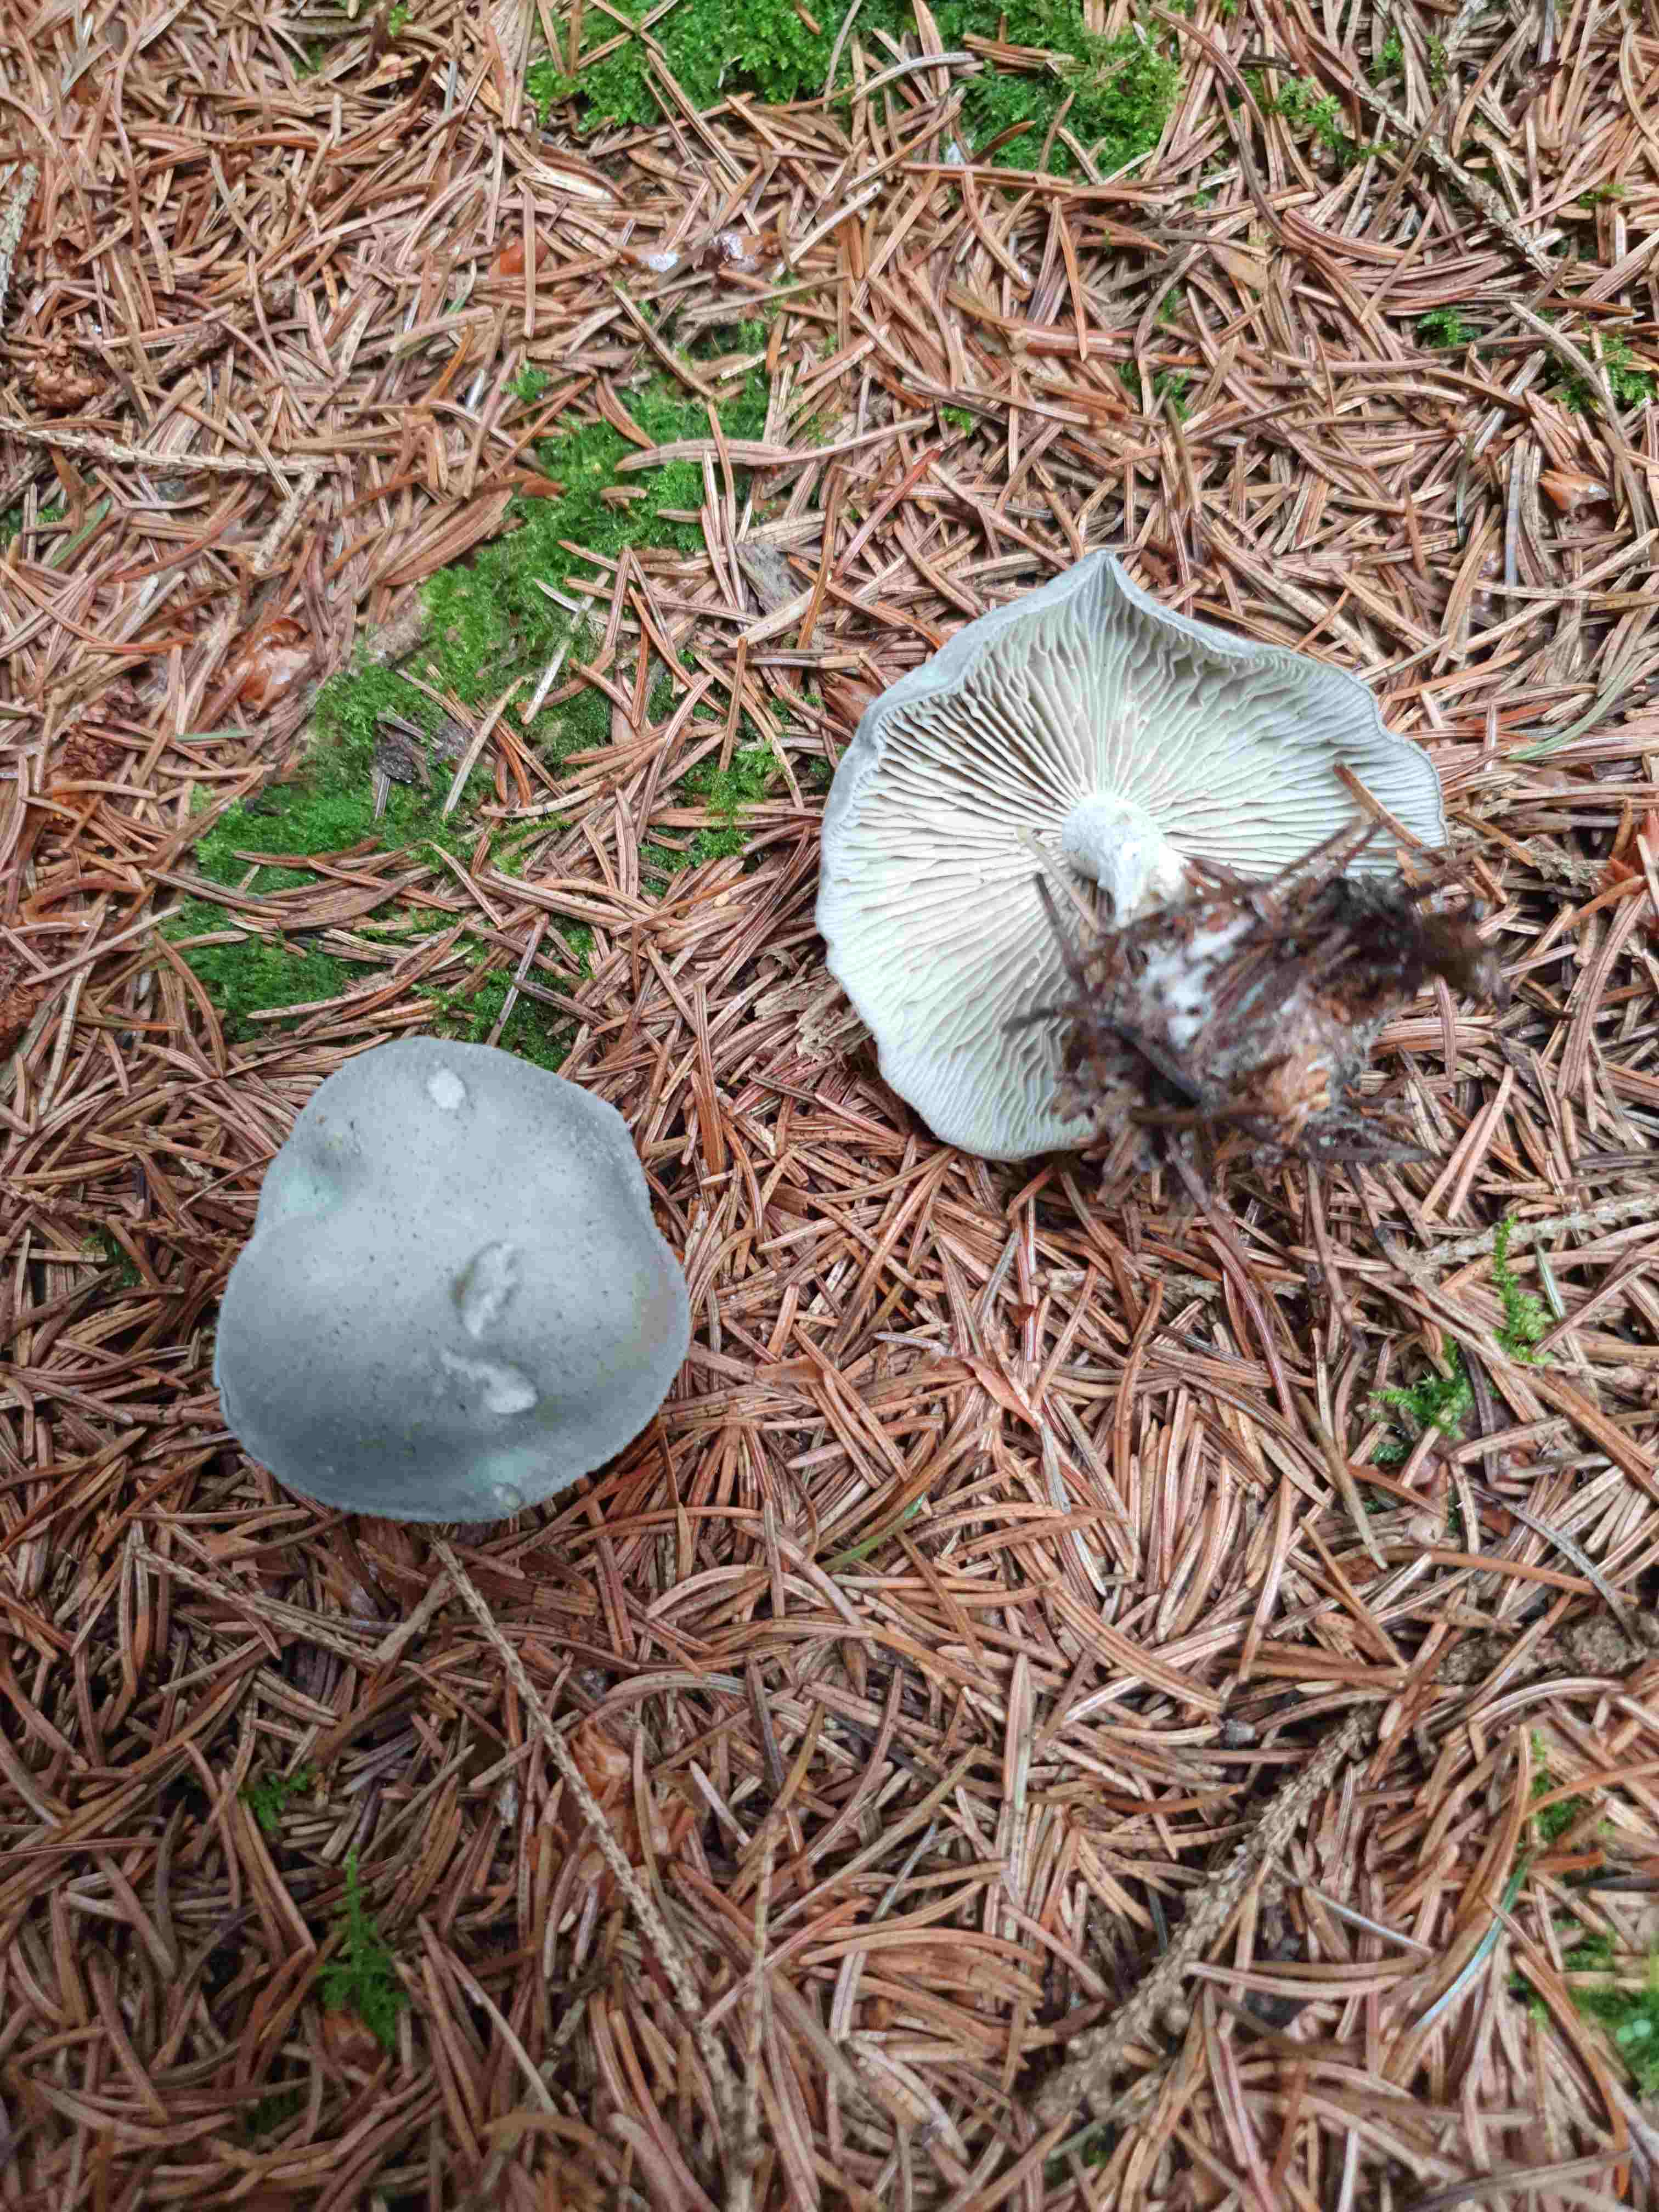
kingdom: Fungi
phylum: Basidiomycota
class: Agaricomycetes
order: Agaricales
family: Tricholomataceae
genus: Clitocybe
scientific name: Clitocybe odora
